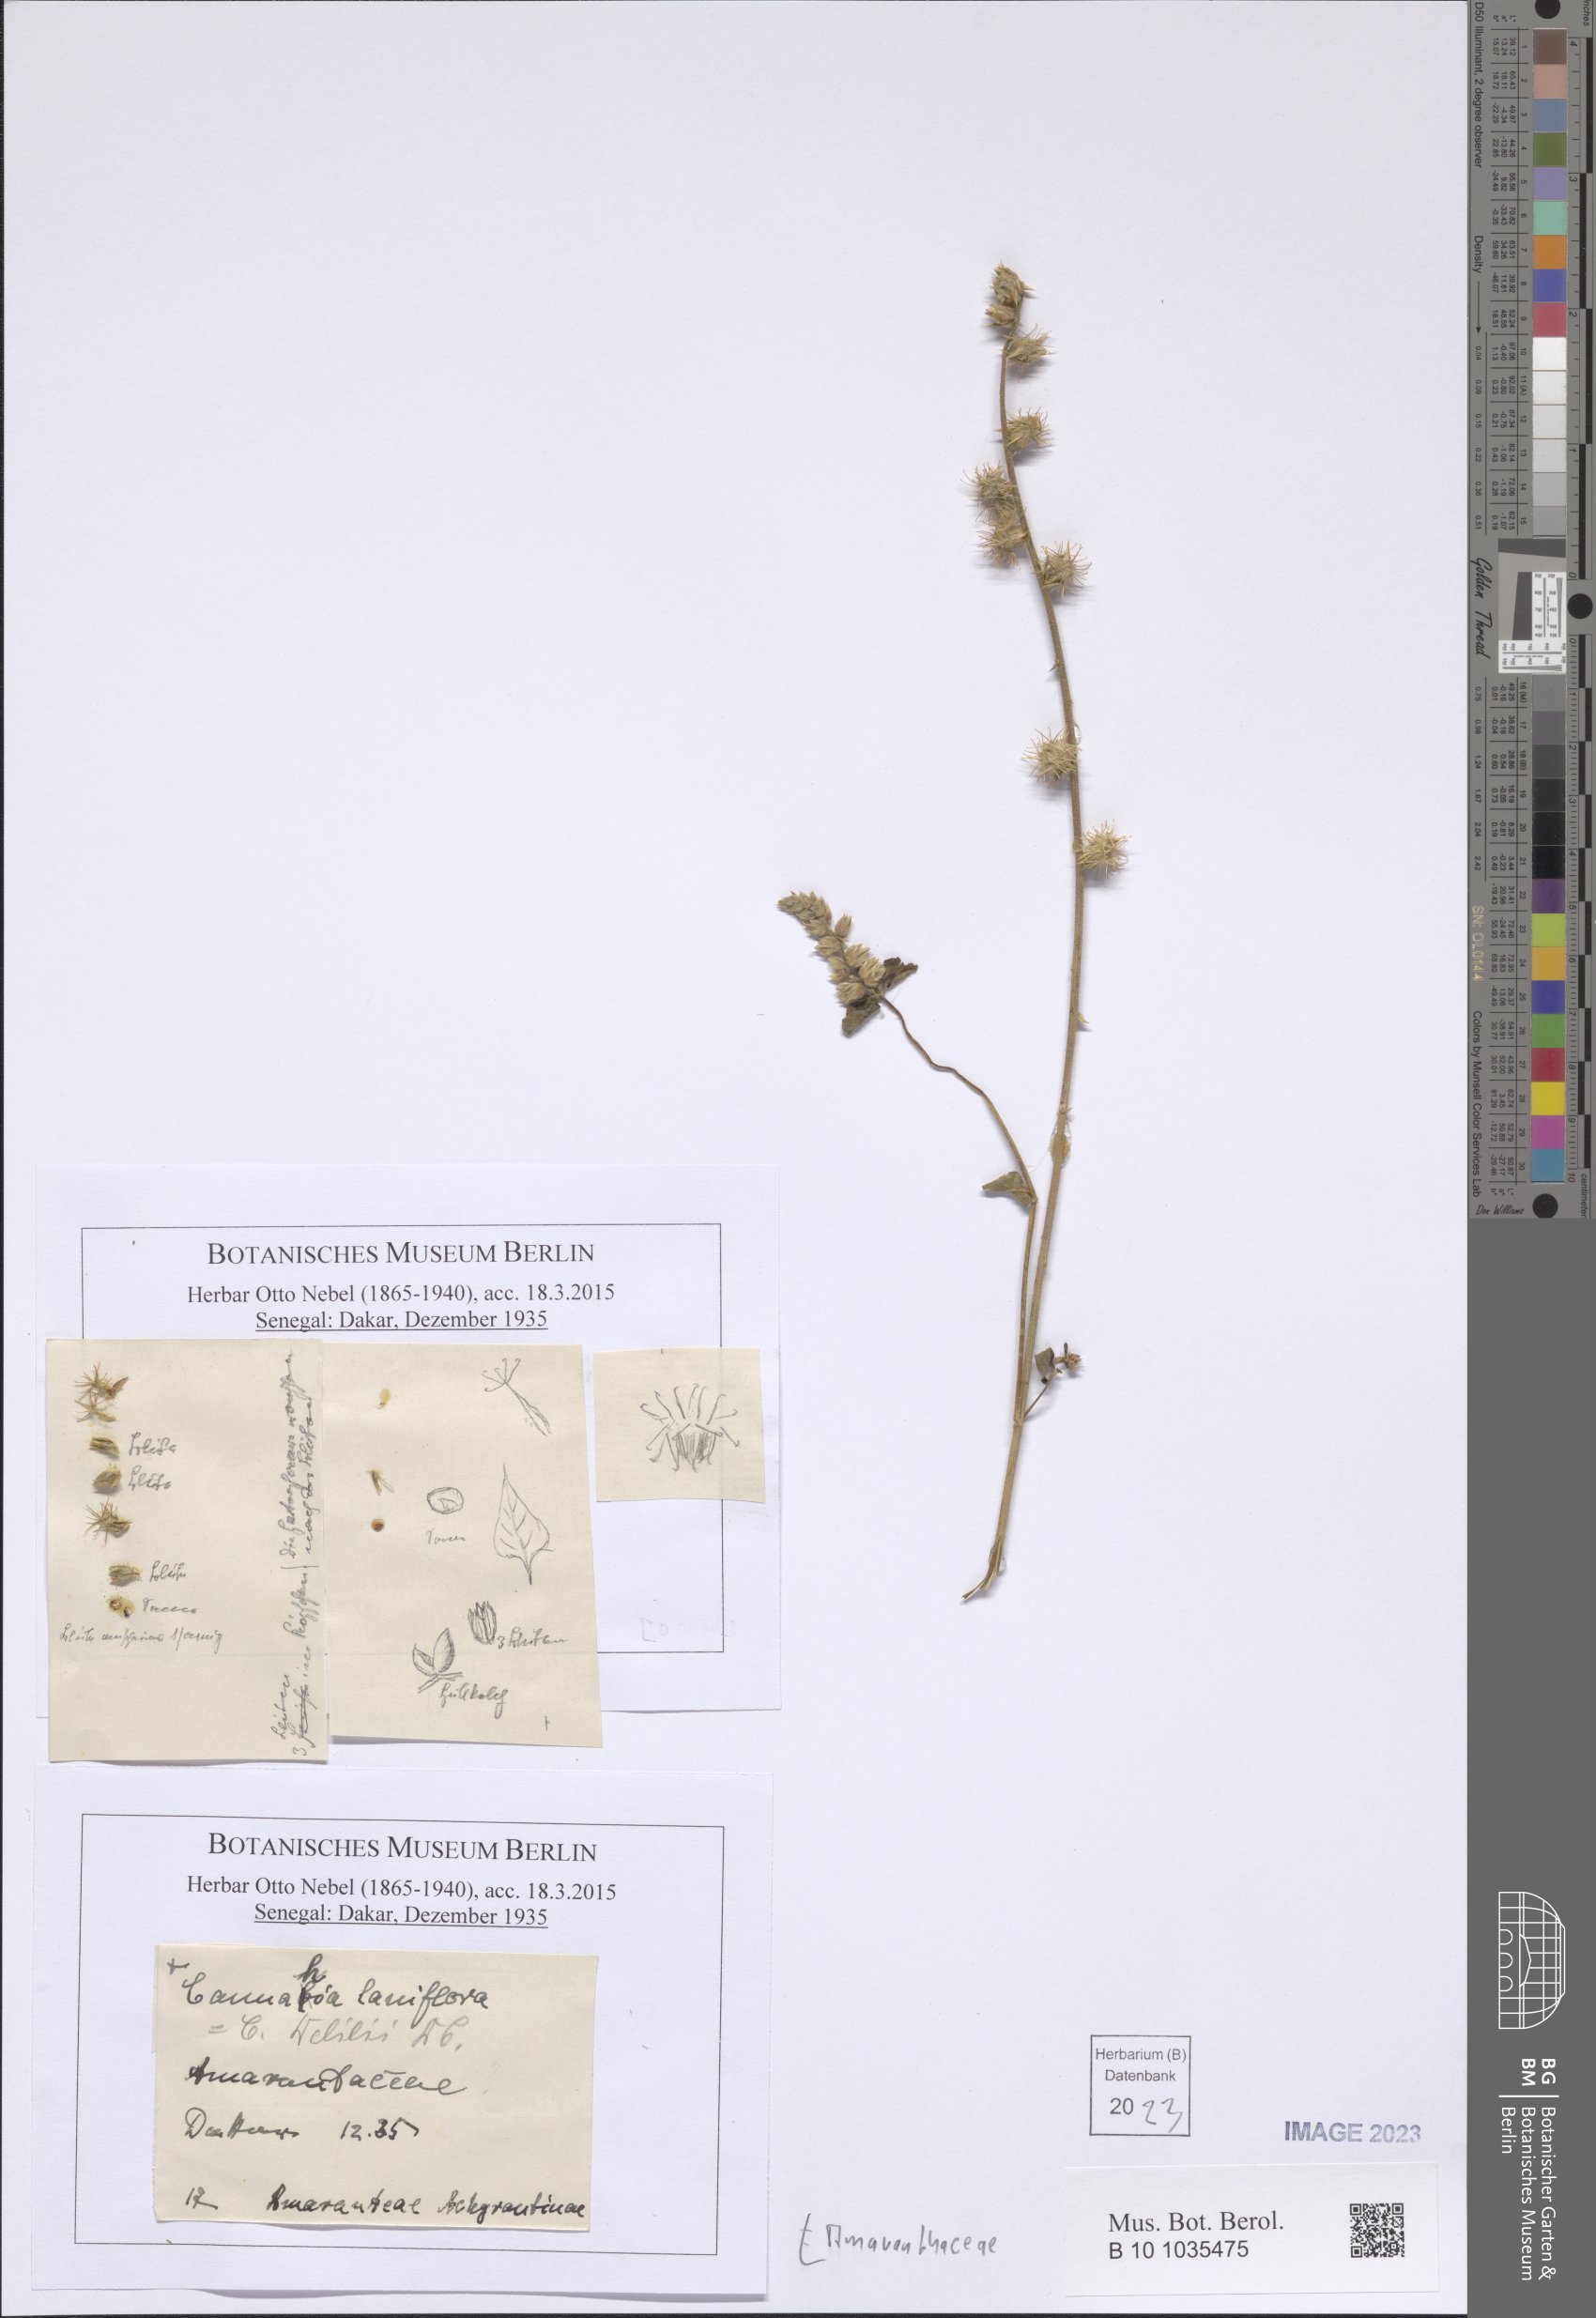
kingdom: Plantae
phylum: Tracheophyta
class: Magnoliopsida
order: Caryophyllales
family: Amaranthaceae
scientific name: Amaranthaceae
